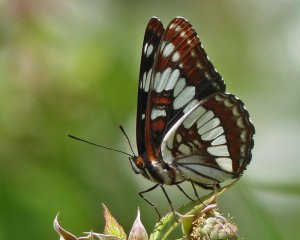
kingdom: Animalia
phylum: Arthropoda
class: Insecta
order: Lepidoptera
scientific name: Lepidoptera
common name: Butterflies
